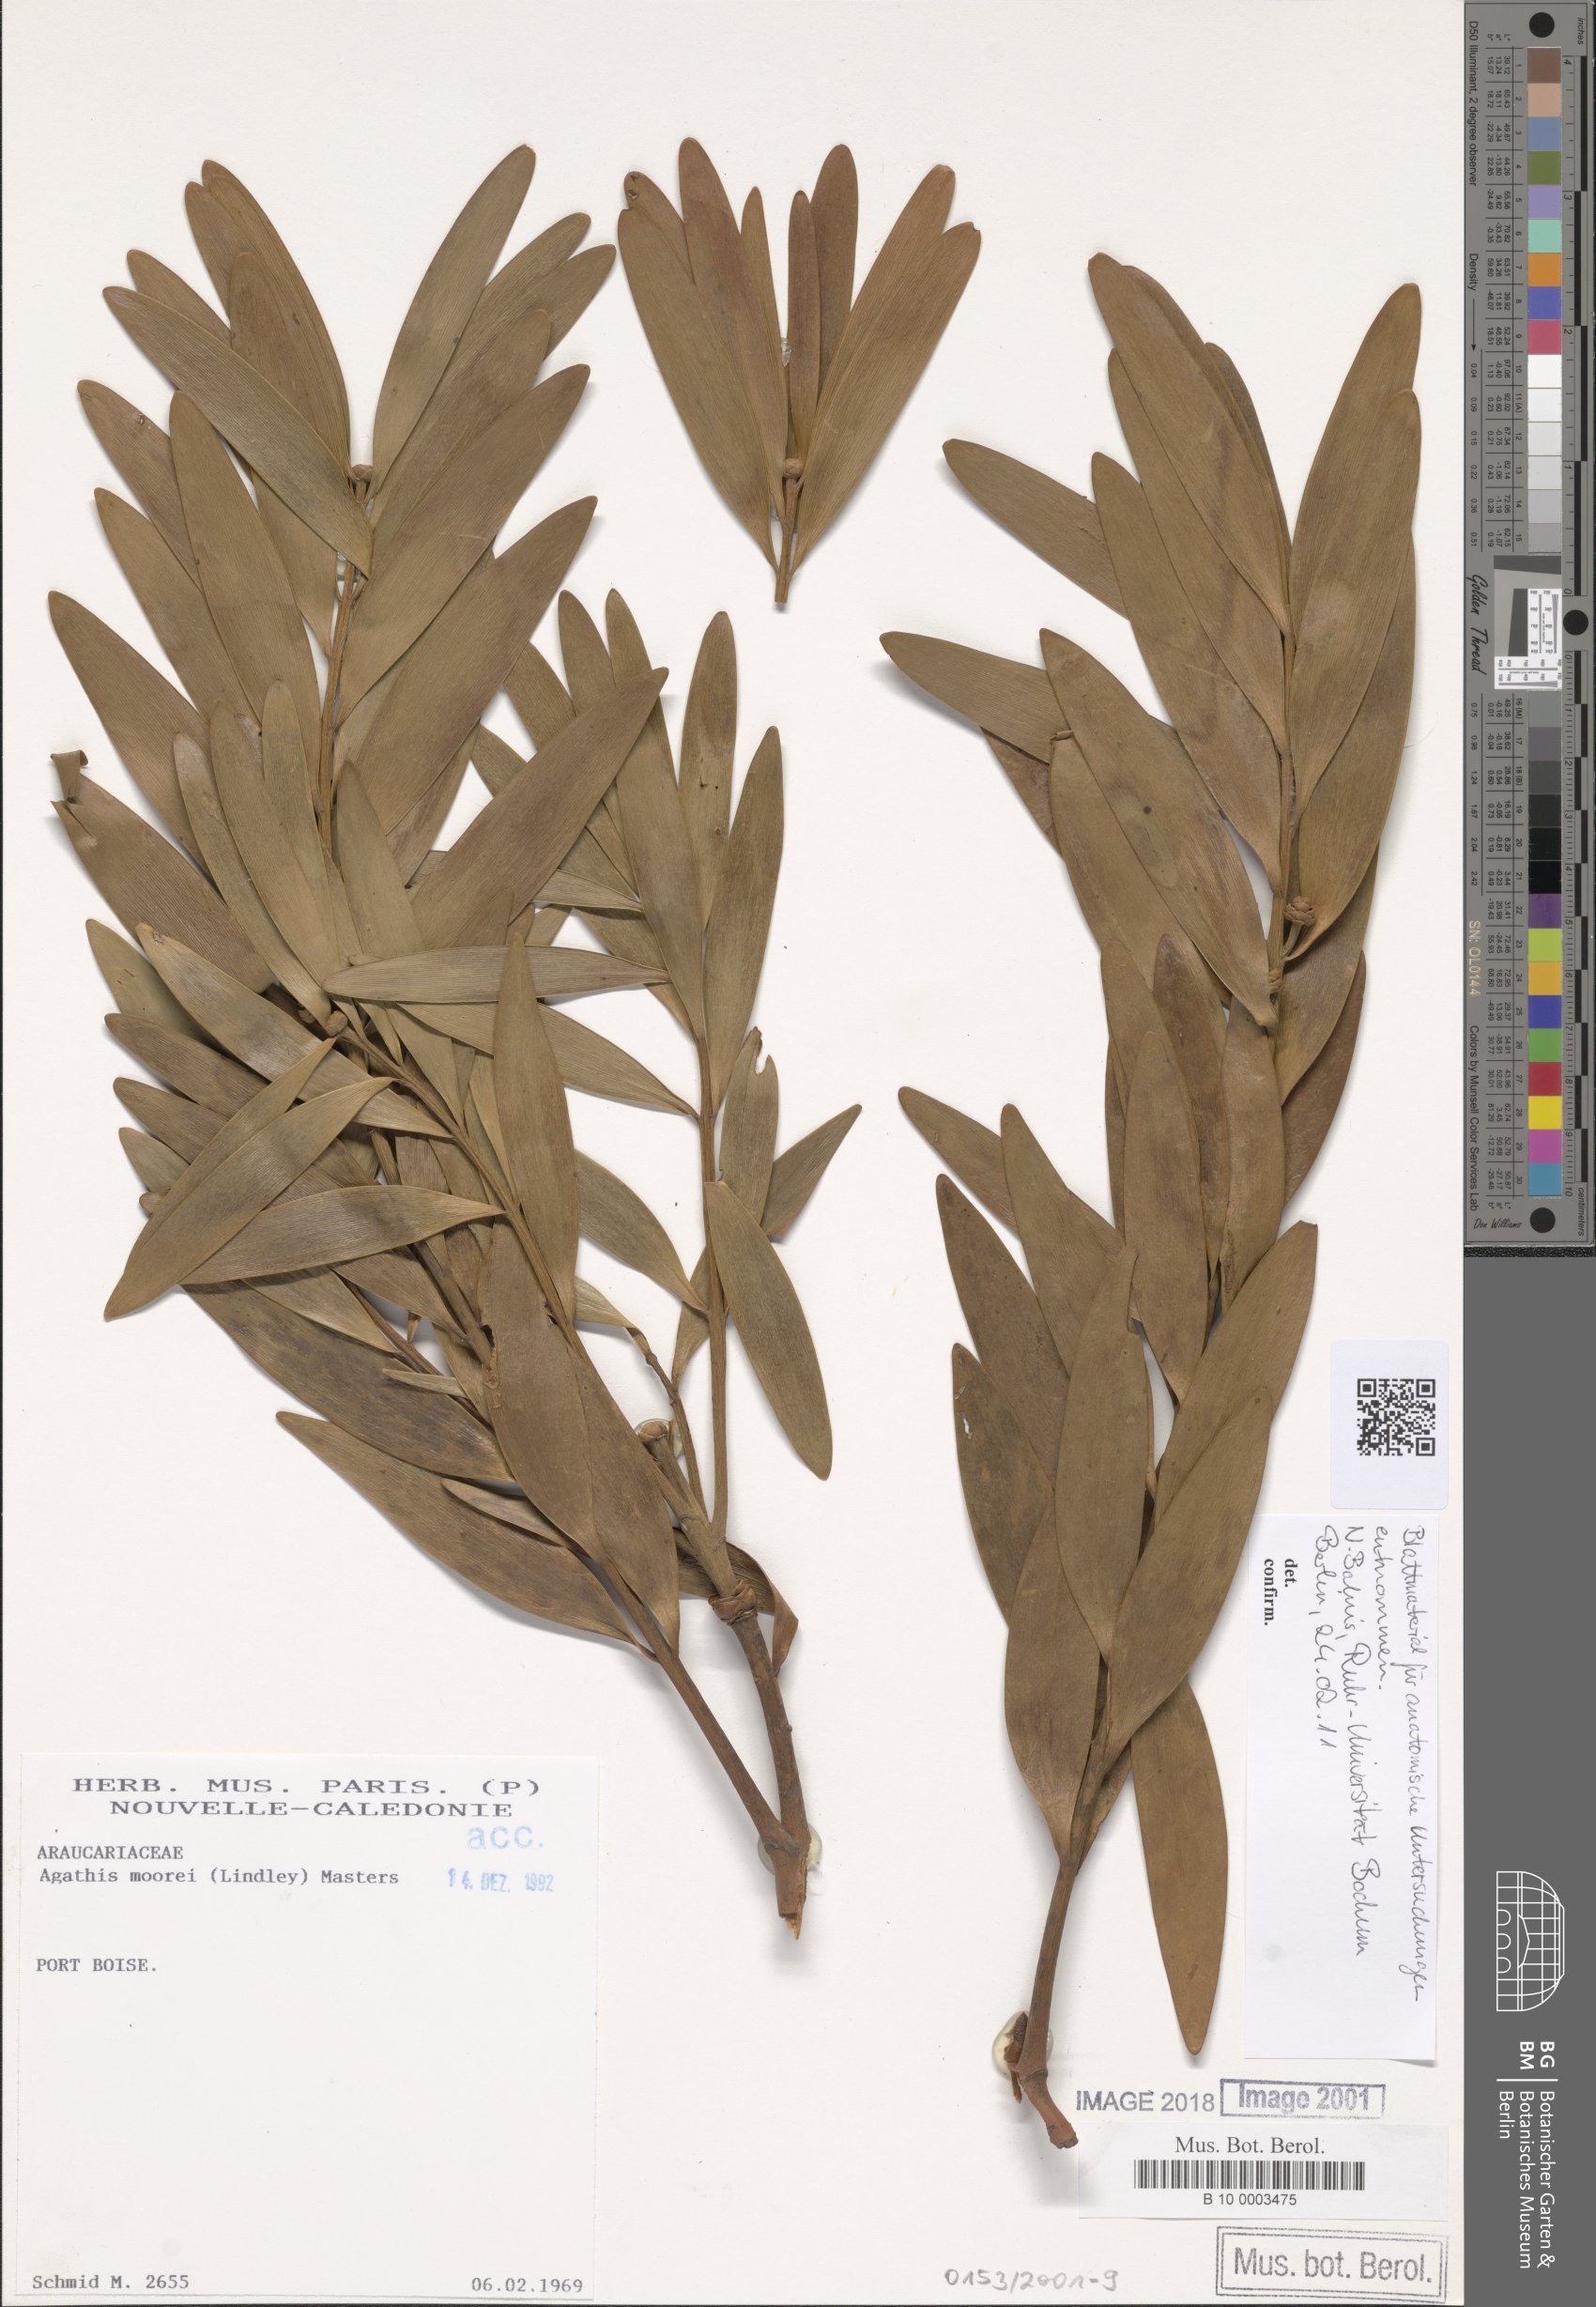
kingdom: Plantae
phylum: Tracheophyta
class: Pinopsida
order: Pinales
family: Araucariaceae
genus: Agathis
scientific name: Agathis moorei
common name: Moore's kauri
